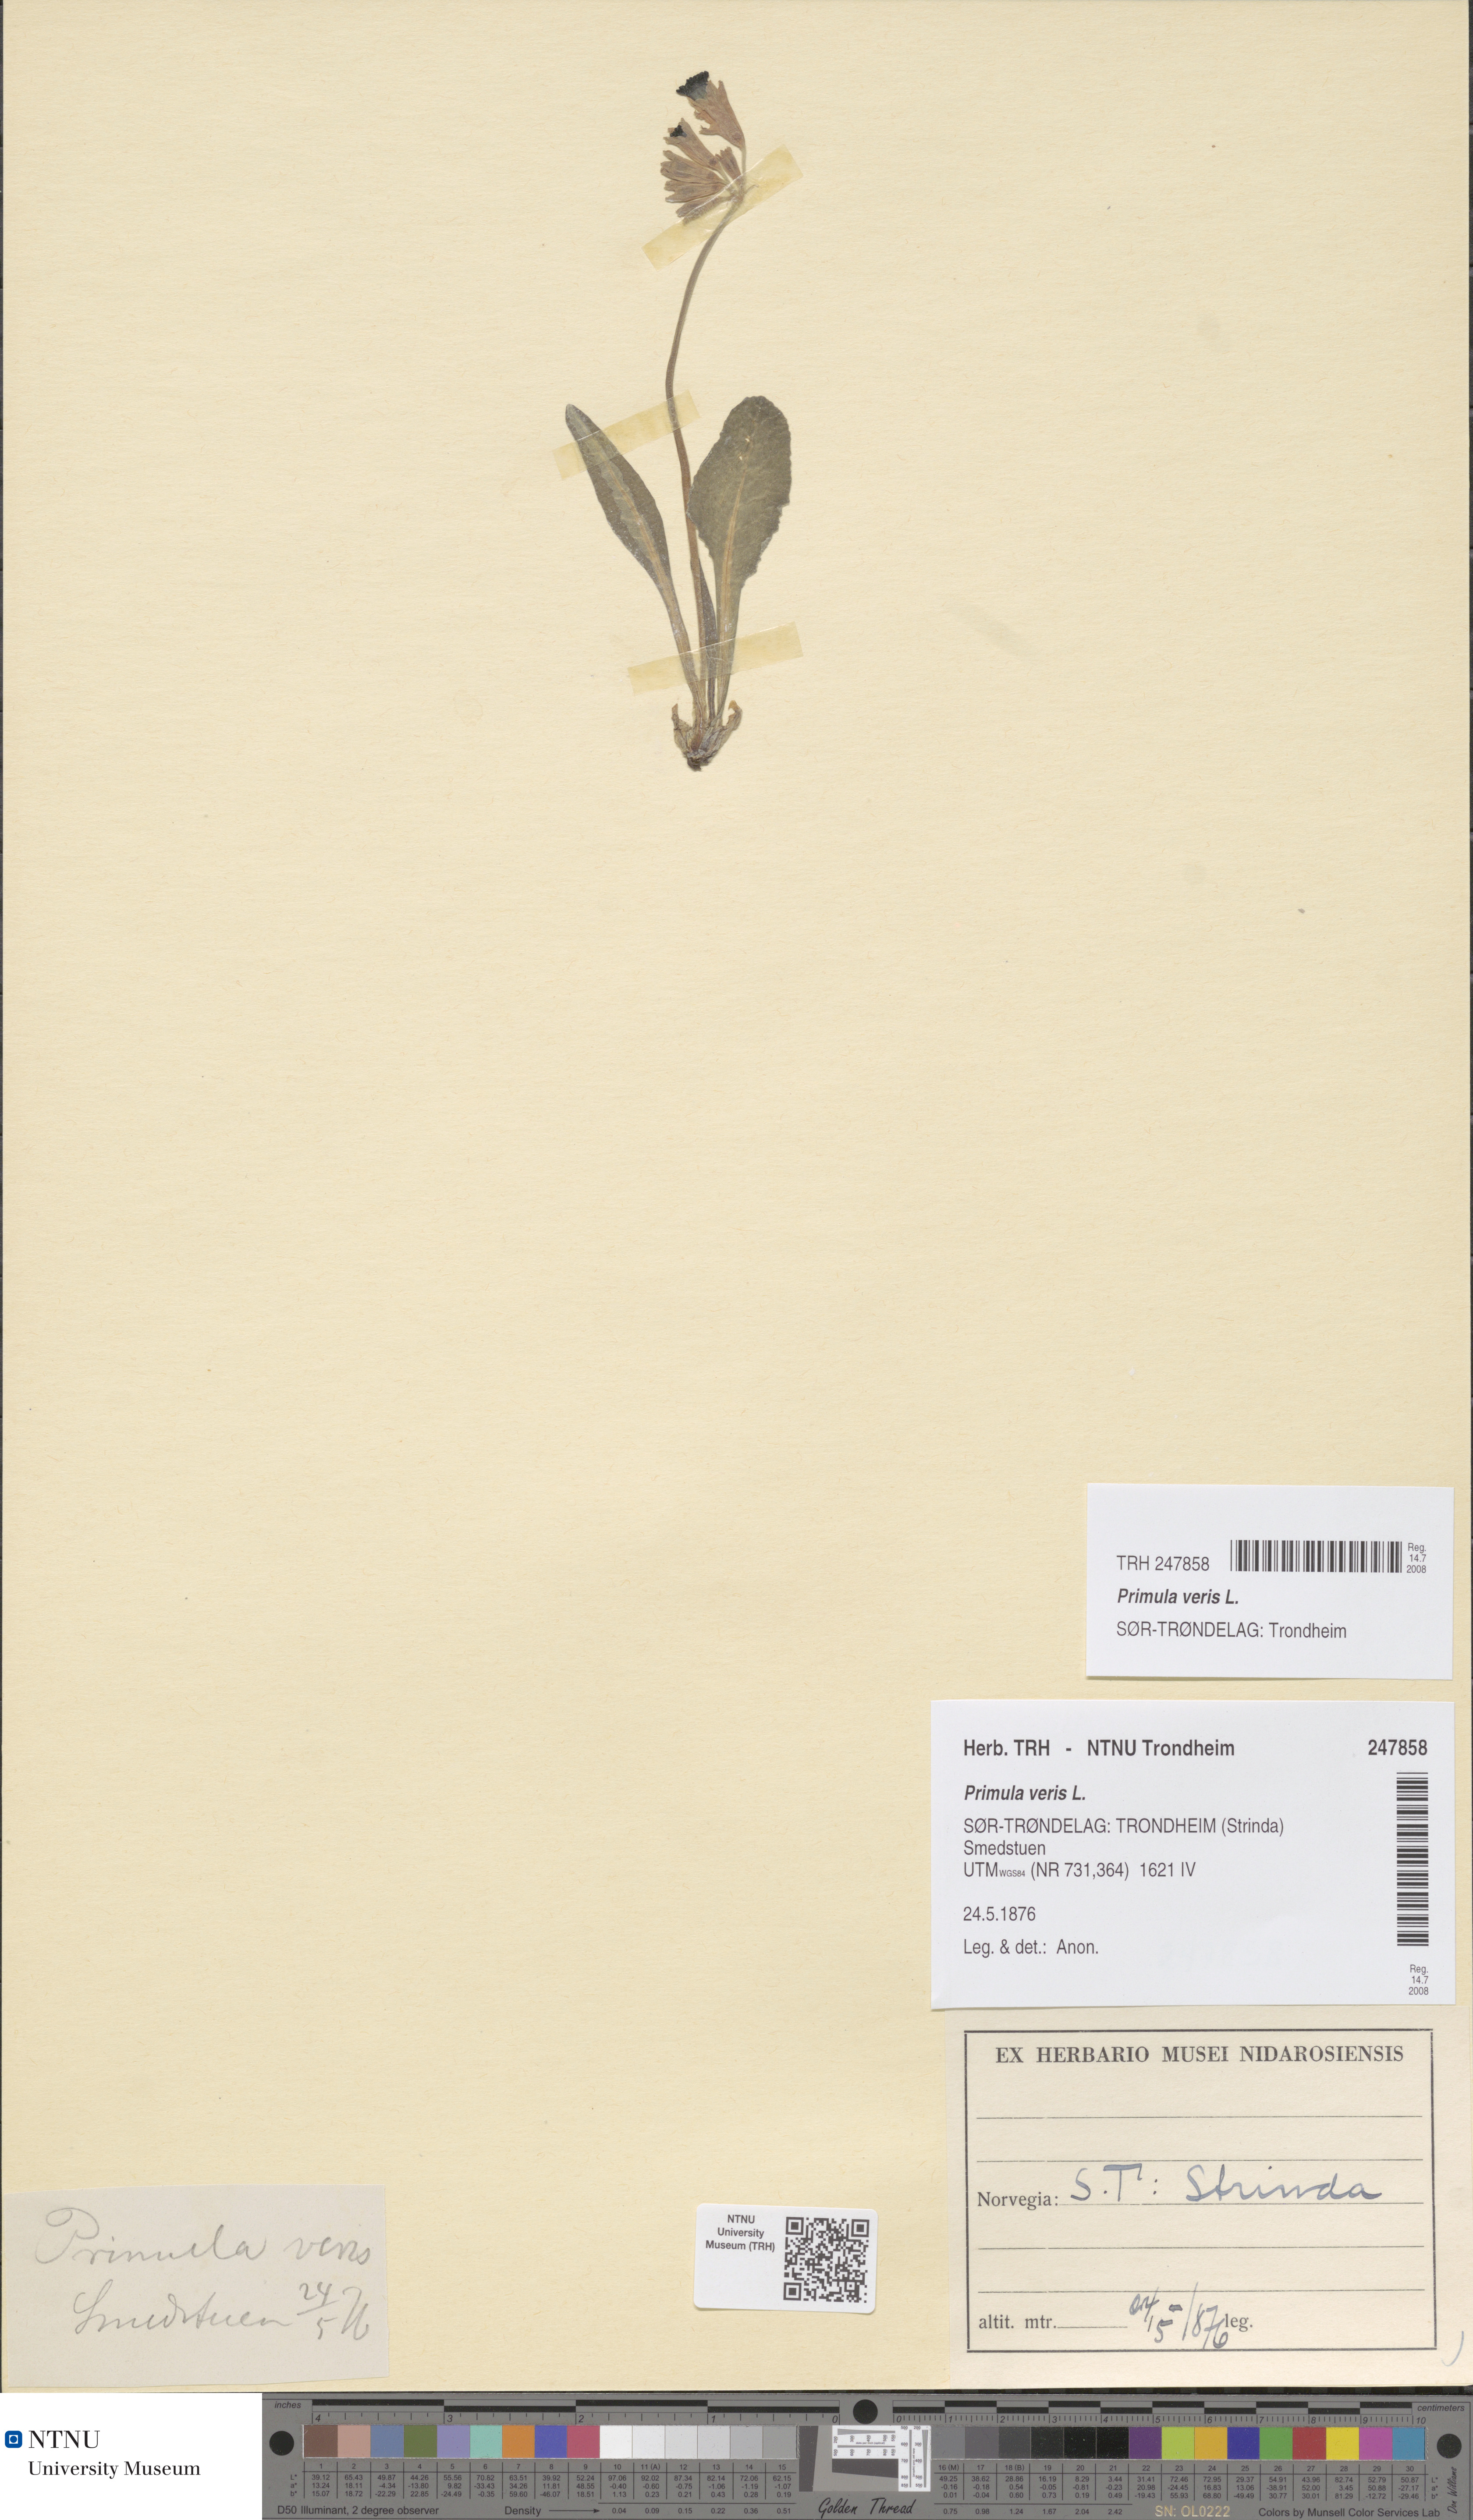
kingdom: Plantae
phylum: Tracheophyta
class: Magnoliopsida
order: Ericales
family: Primulaceae
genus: Primula
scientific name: Primula veris
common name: Cowslip
